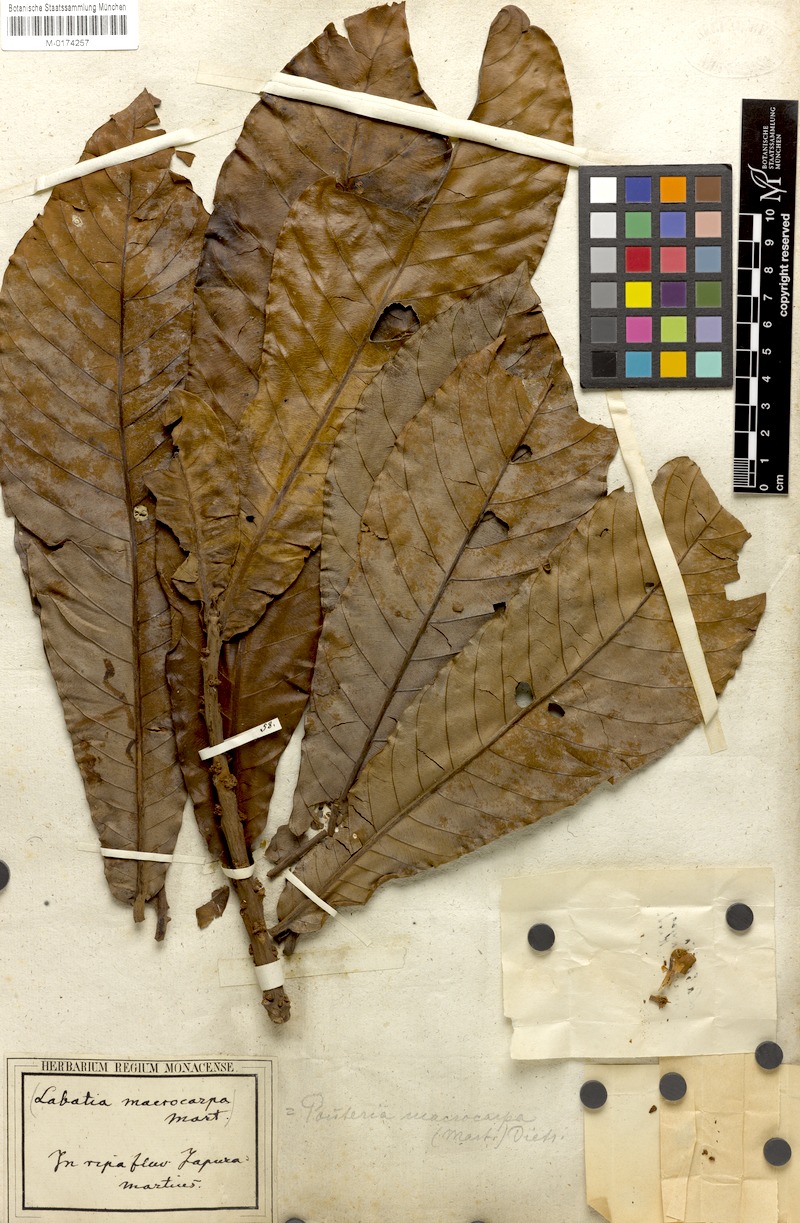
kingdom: Plantae
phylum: Tracheophyta
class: Magnoliopsida
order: Ericales
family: Sapotaceae
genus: Pouteria
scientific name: Pouteria macrocarpa
